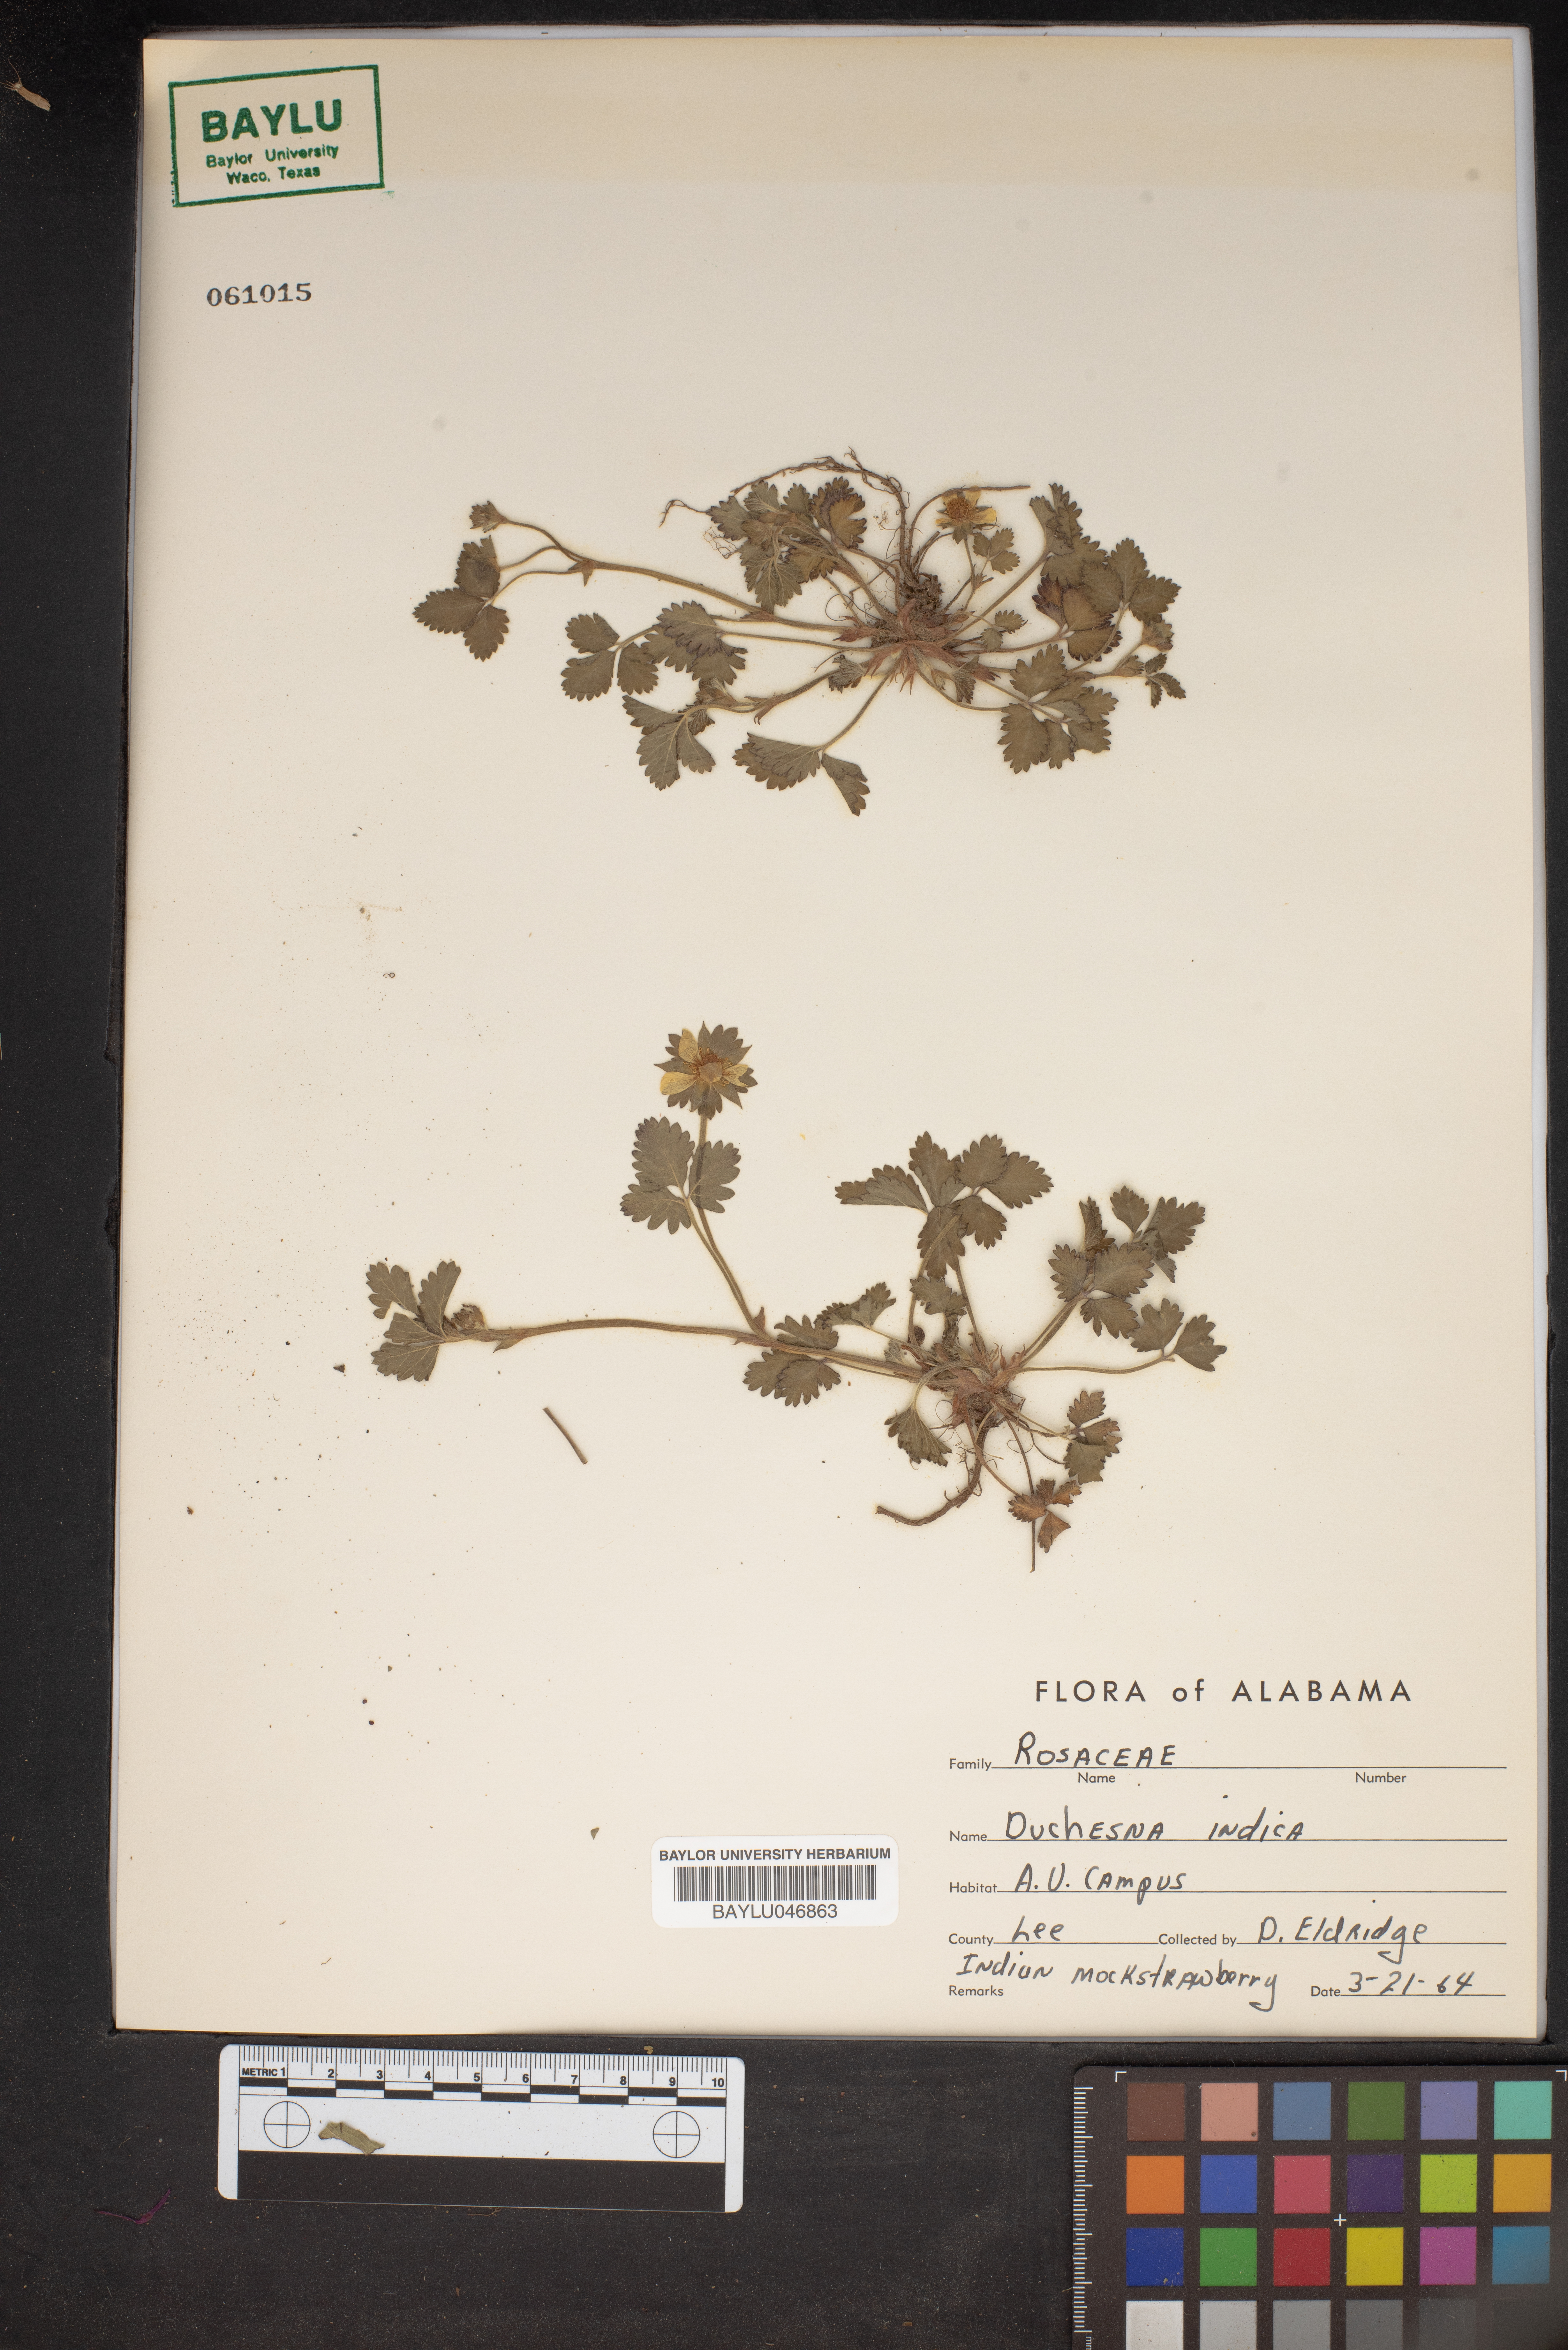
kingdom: Plantae
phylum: Tracheophyta
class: Magnoliopsida
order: Rosales
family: Rosaceae
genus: Potentilla
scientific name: Potentilla indica
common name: Yellow-flowered strawberry
